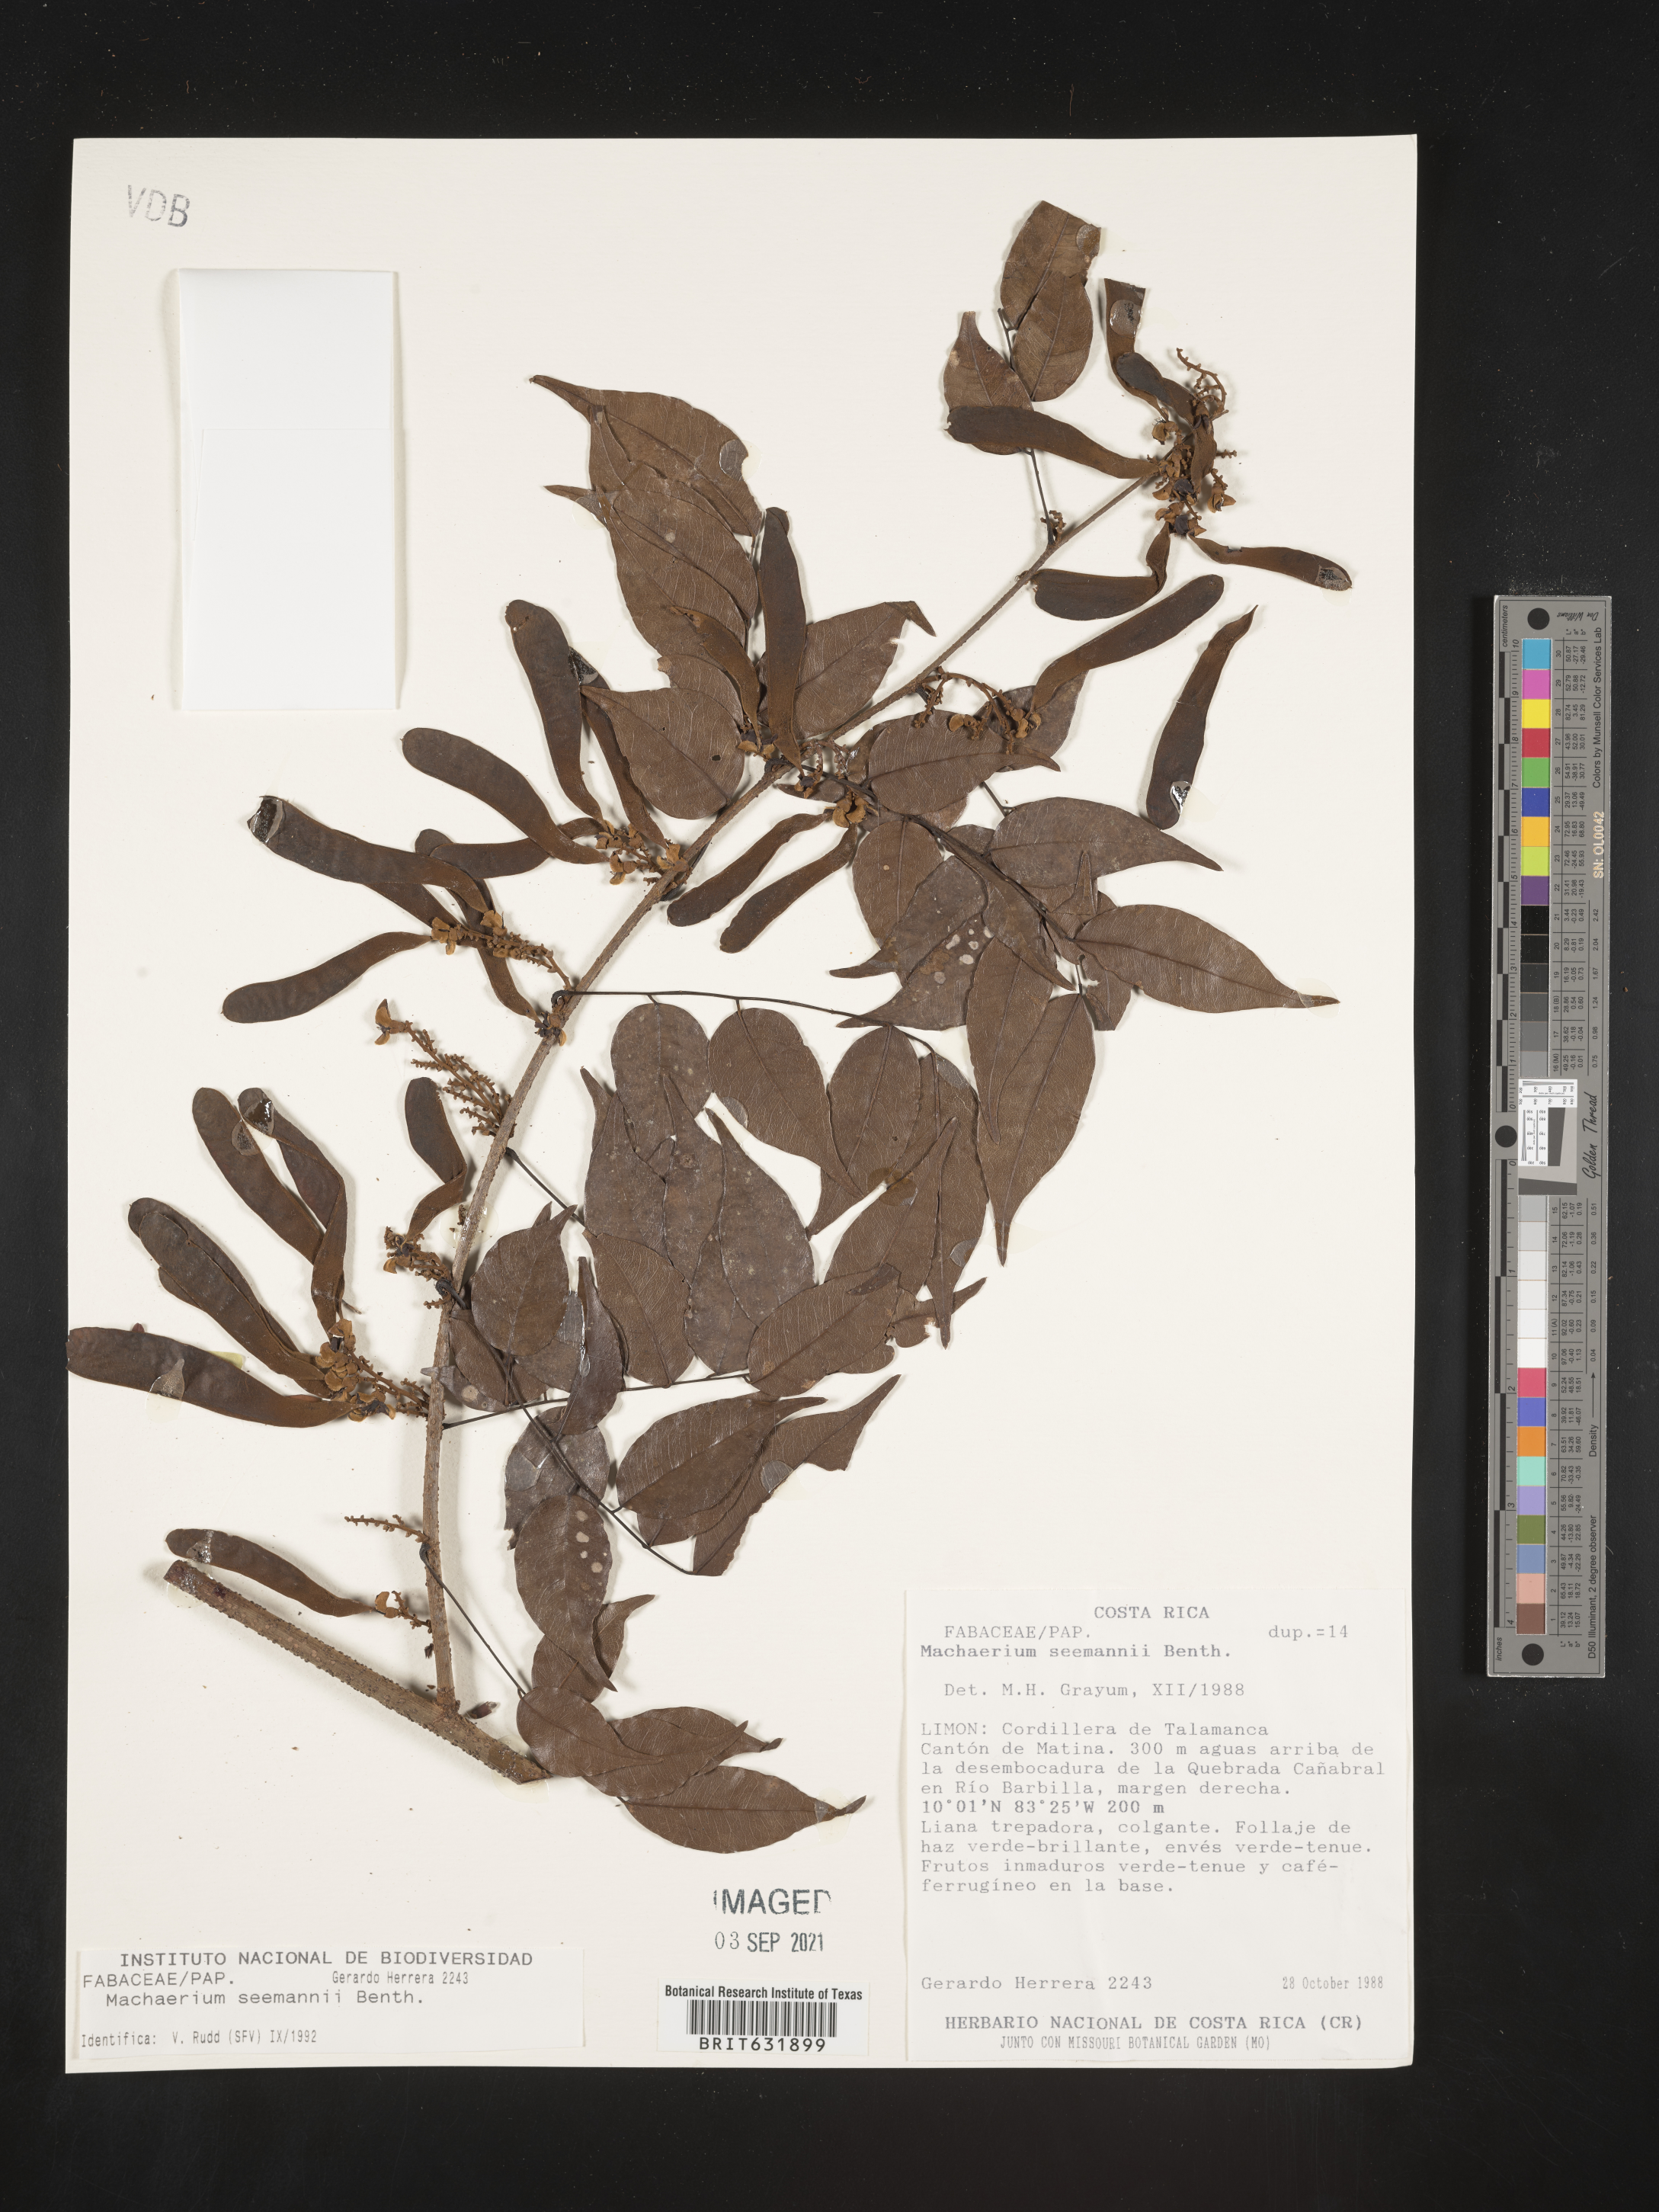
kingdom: Plantae
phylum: Tracheophyta
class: Magnoliopsida
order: Fabales
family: Fabaceae
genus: Machaerium
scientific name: Machaerium
